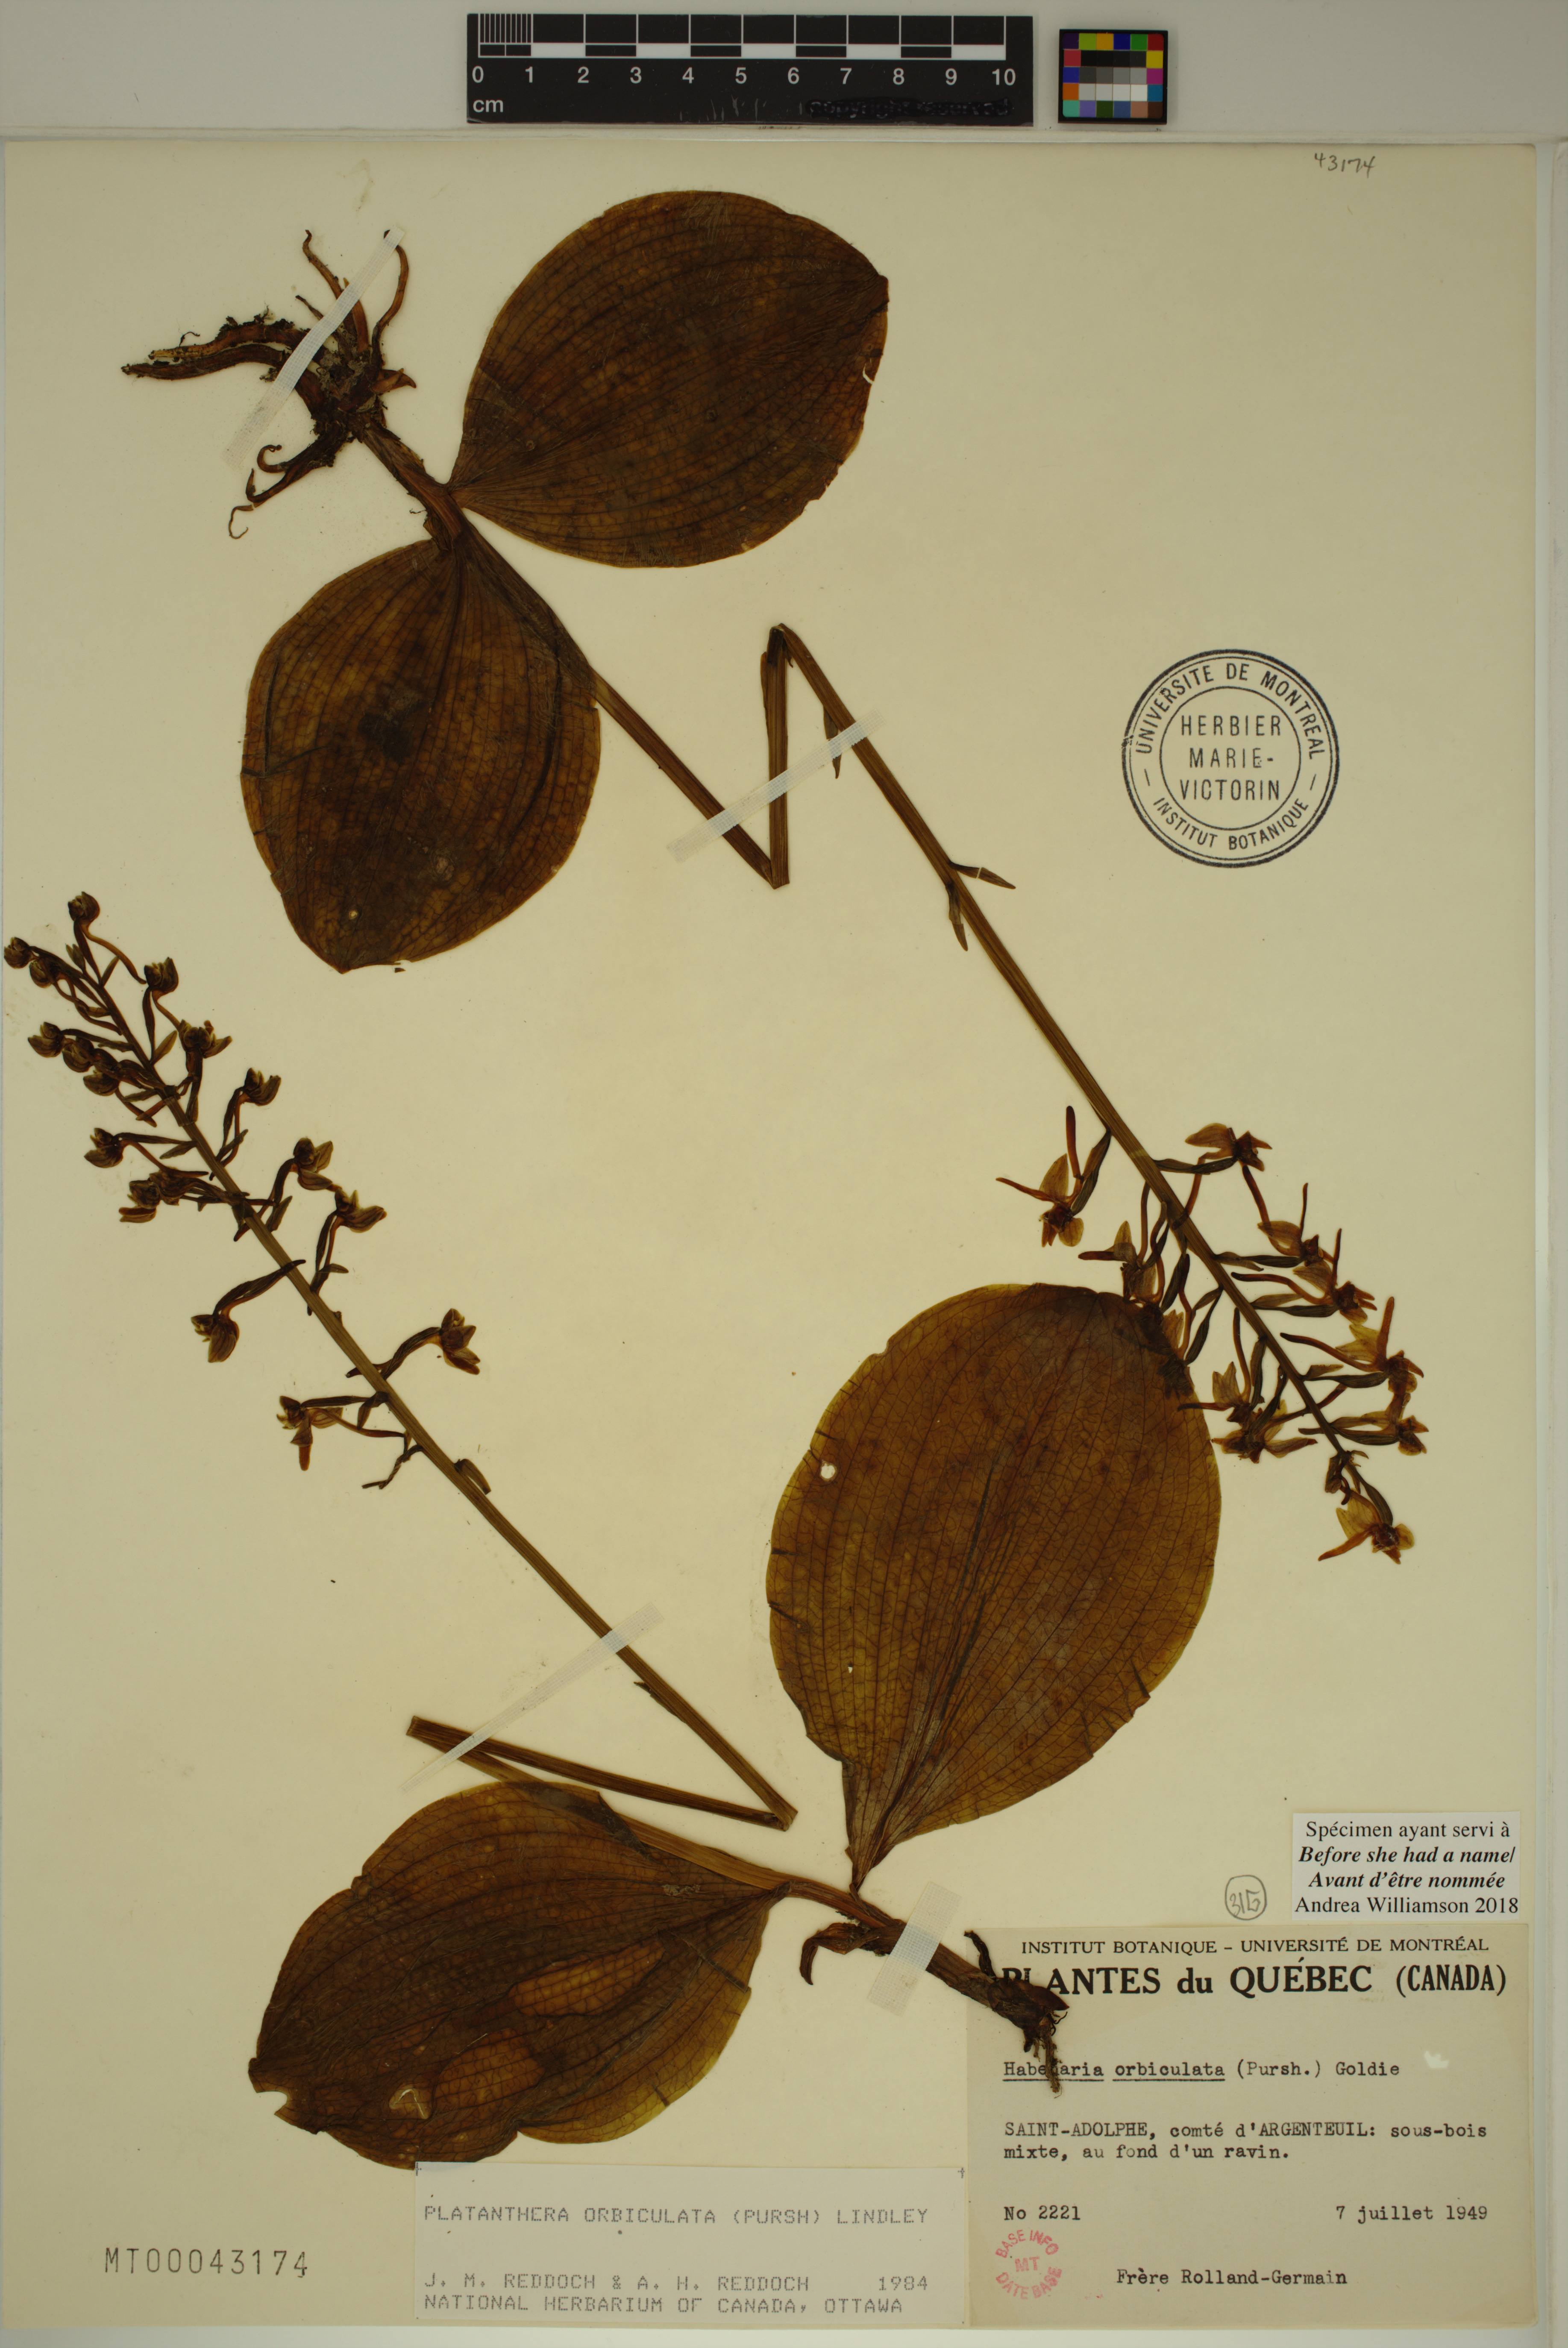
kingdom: Plantae
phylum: Tracheophyta
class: Liliopsida
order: Asparagales
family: Orchidaceae
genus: Platanthera
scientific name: Platanthera orbiculata
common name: Large round-leaved orchid
